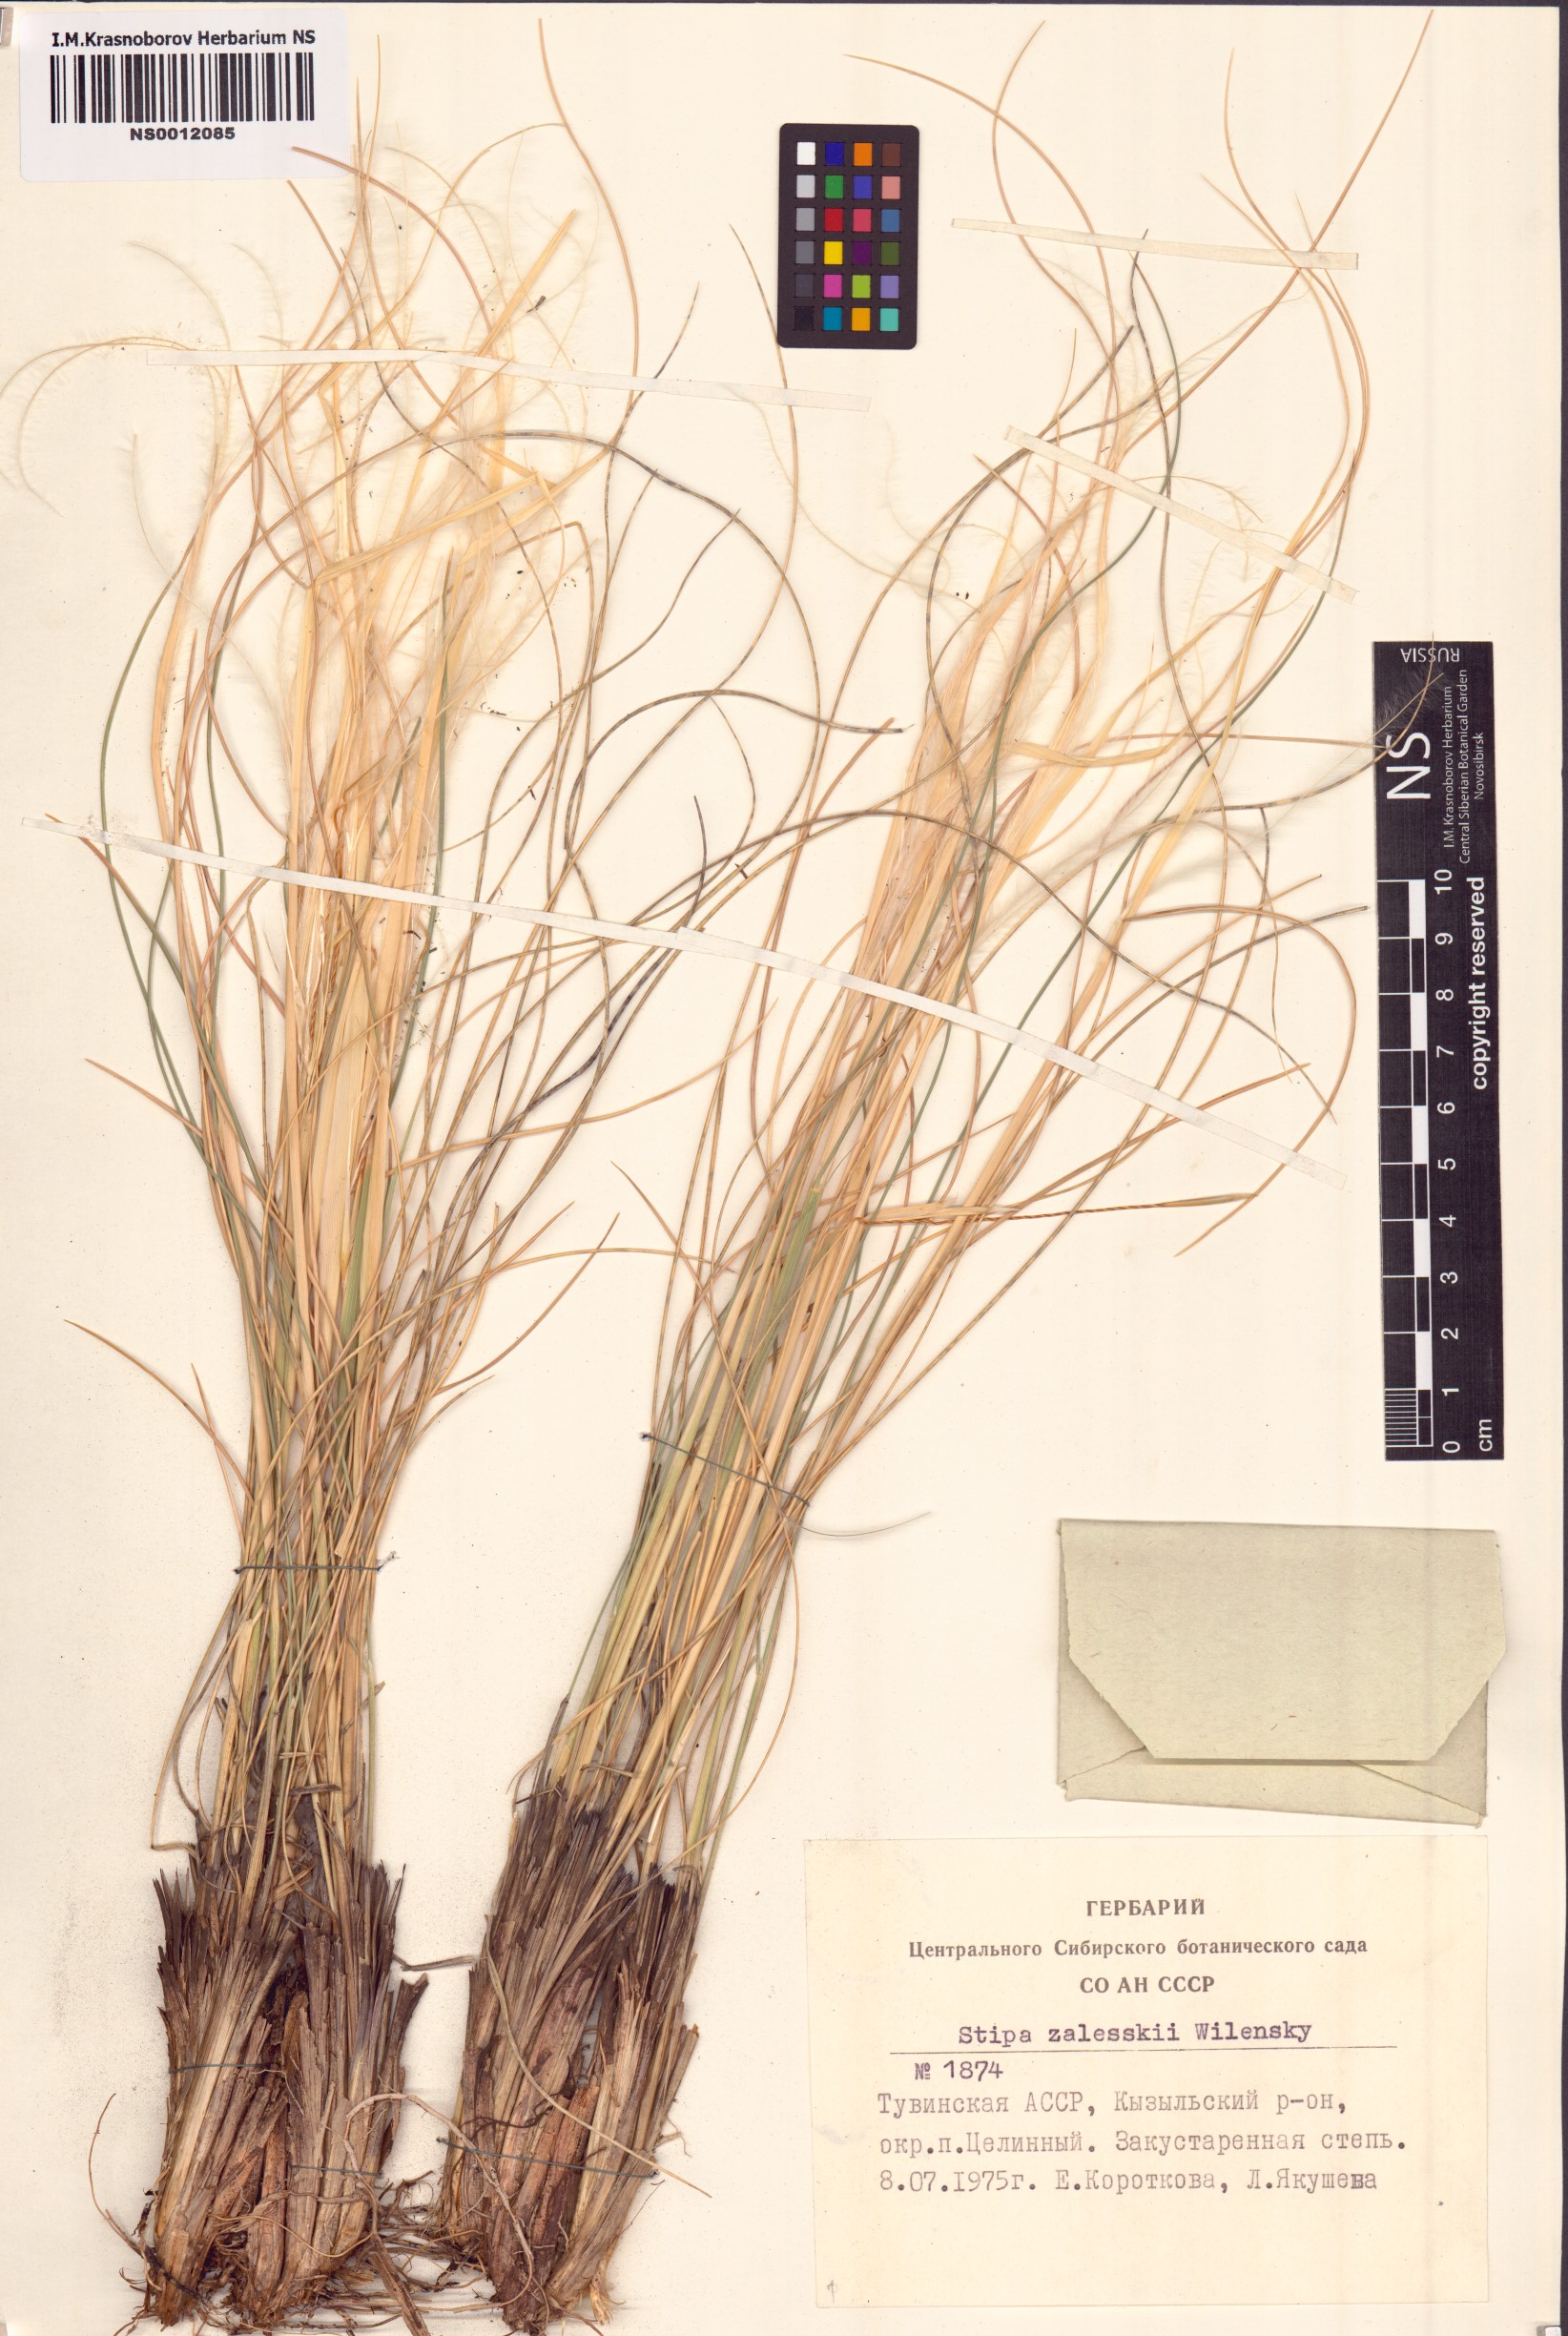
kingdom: Plantae
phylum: Tracheophyta
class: Liliopsida
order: Poales
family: Poaceae
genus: Stipa
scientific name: Stipa zalesskii
